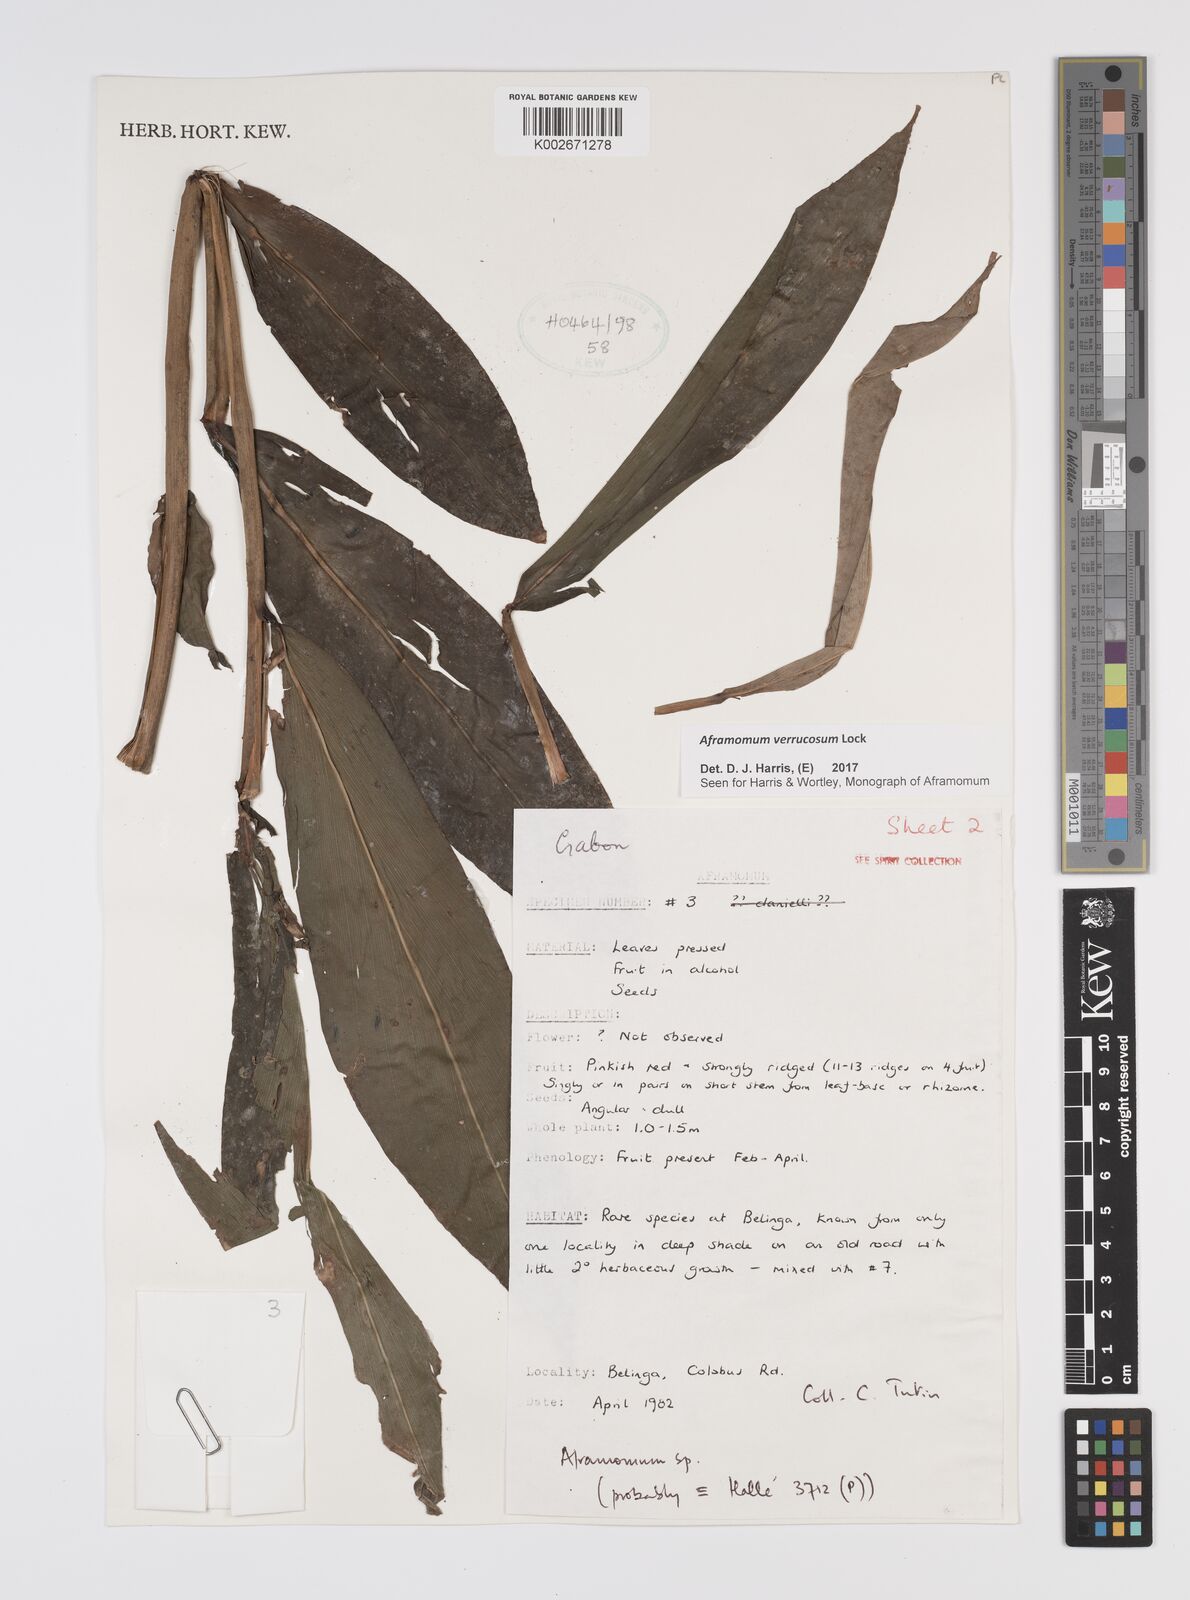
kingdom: Plantae
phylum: Tracheophyta
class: Liliopsida
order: Zingiberales
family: Zingiberaceae
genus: Aframomum
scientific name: Aframomum verrucosum
